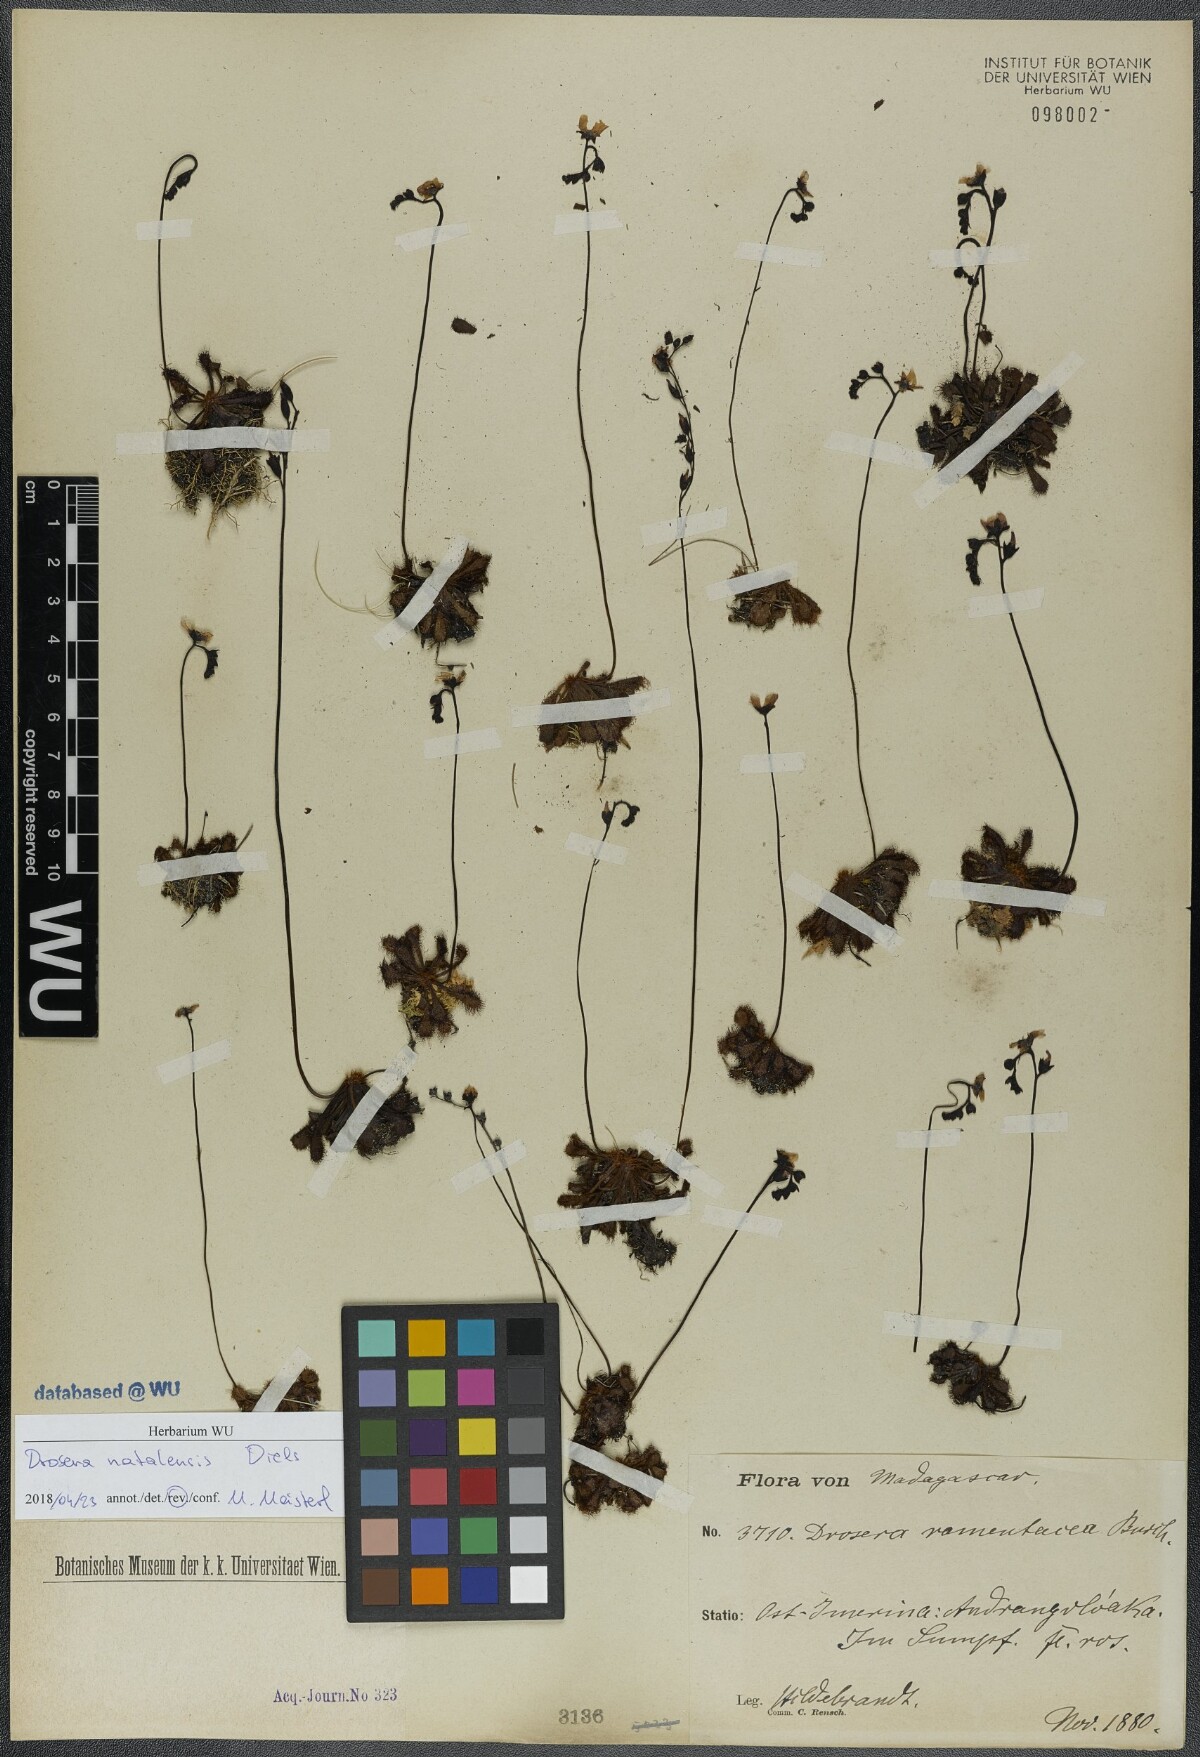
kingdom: Plantae
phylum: Tracheophyta
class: Magnoliopsida
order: Caryophyllales
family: Droseraceae
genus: Drosera
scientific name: Drosera natalensis
